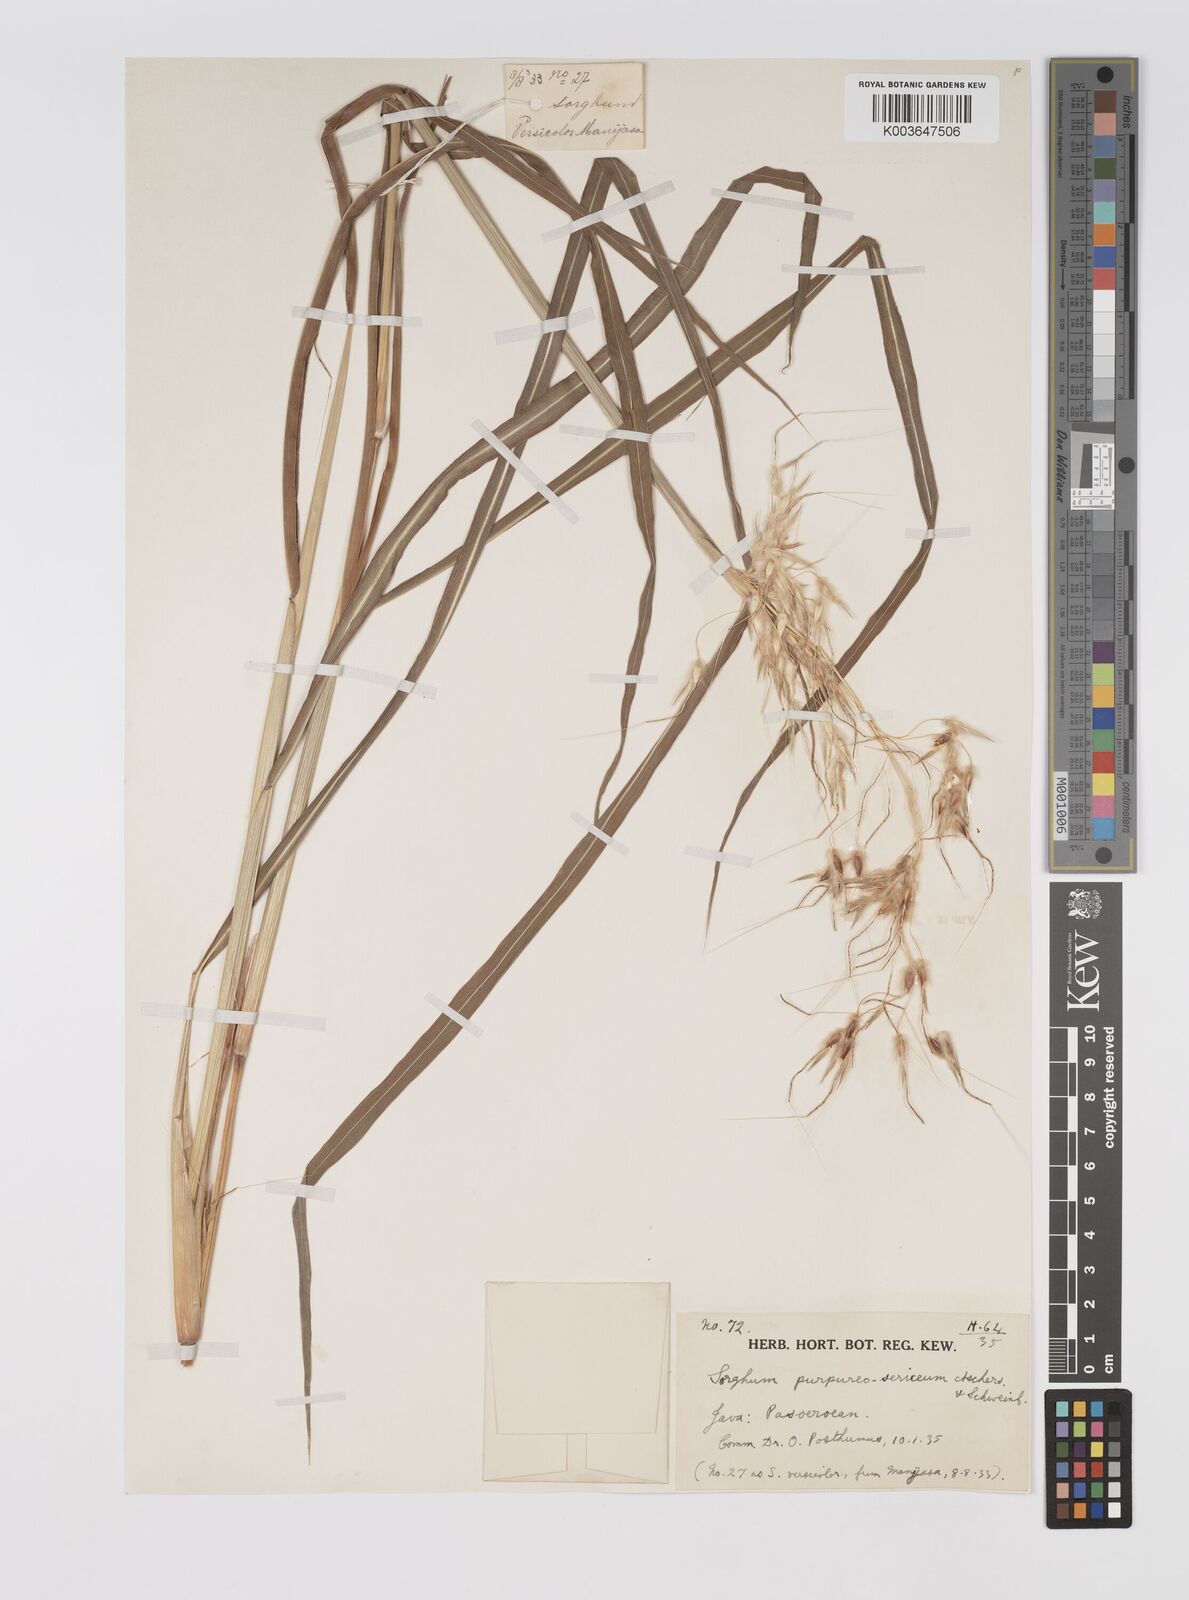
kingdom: Plantae
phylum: Tracheophyta
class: Liliopsida
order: Poales
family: Poaceae
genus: Sarga
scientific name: Sarga purpureosericea
